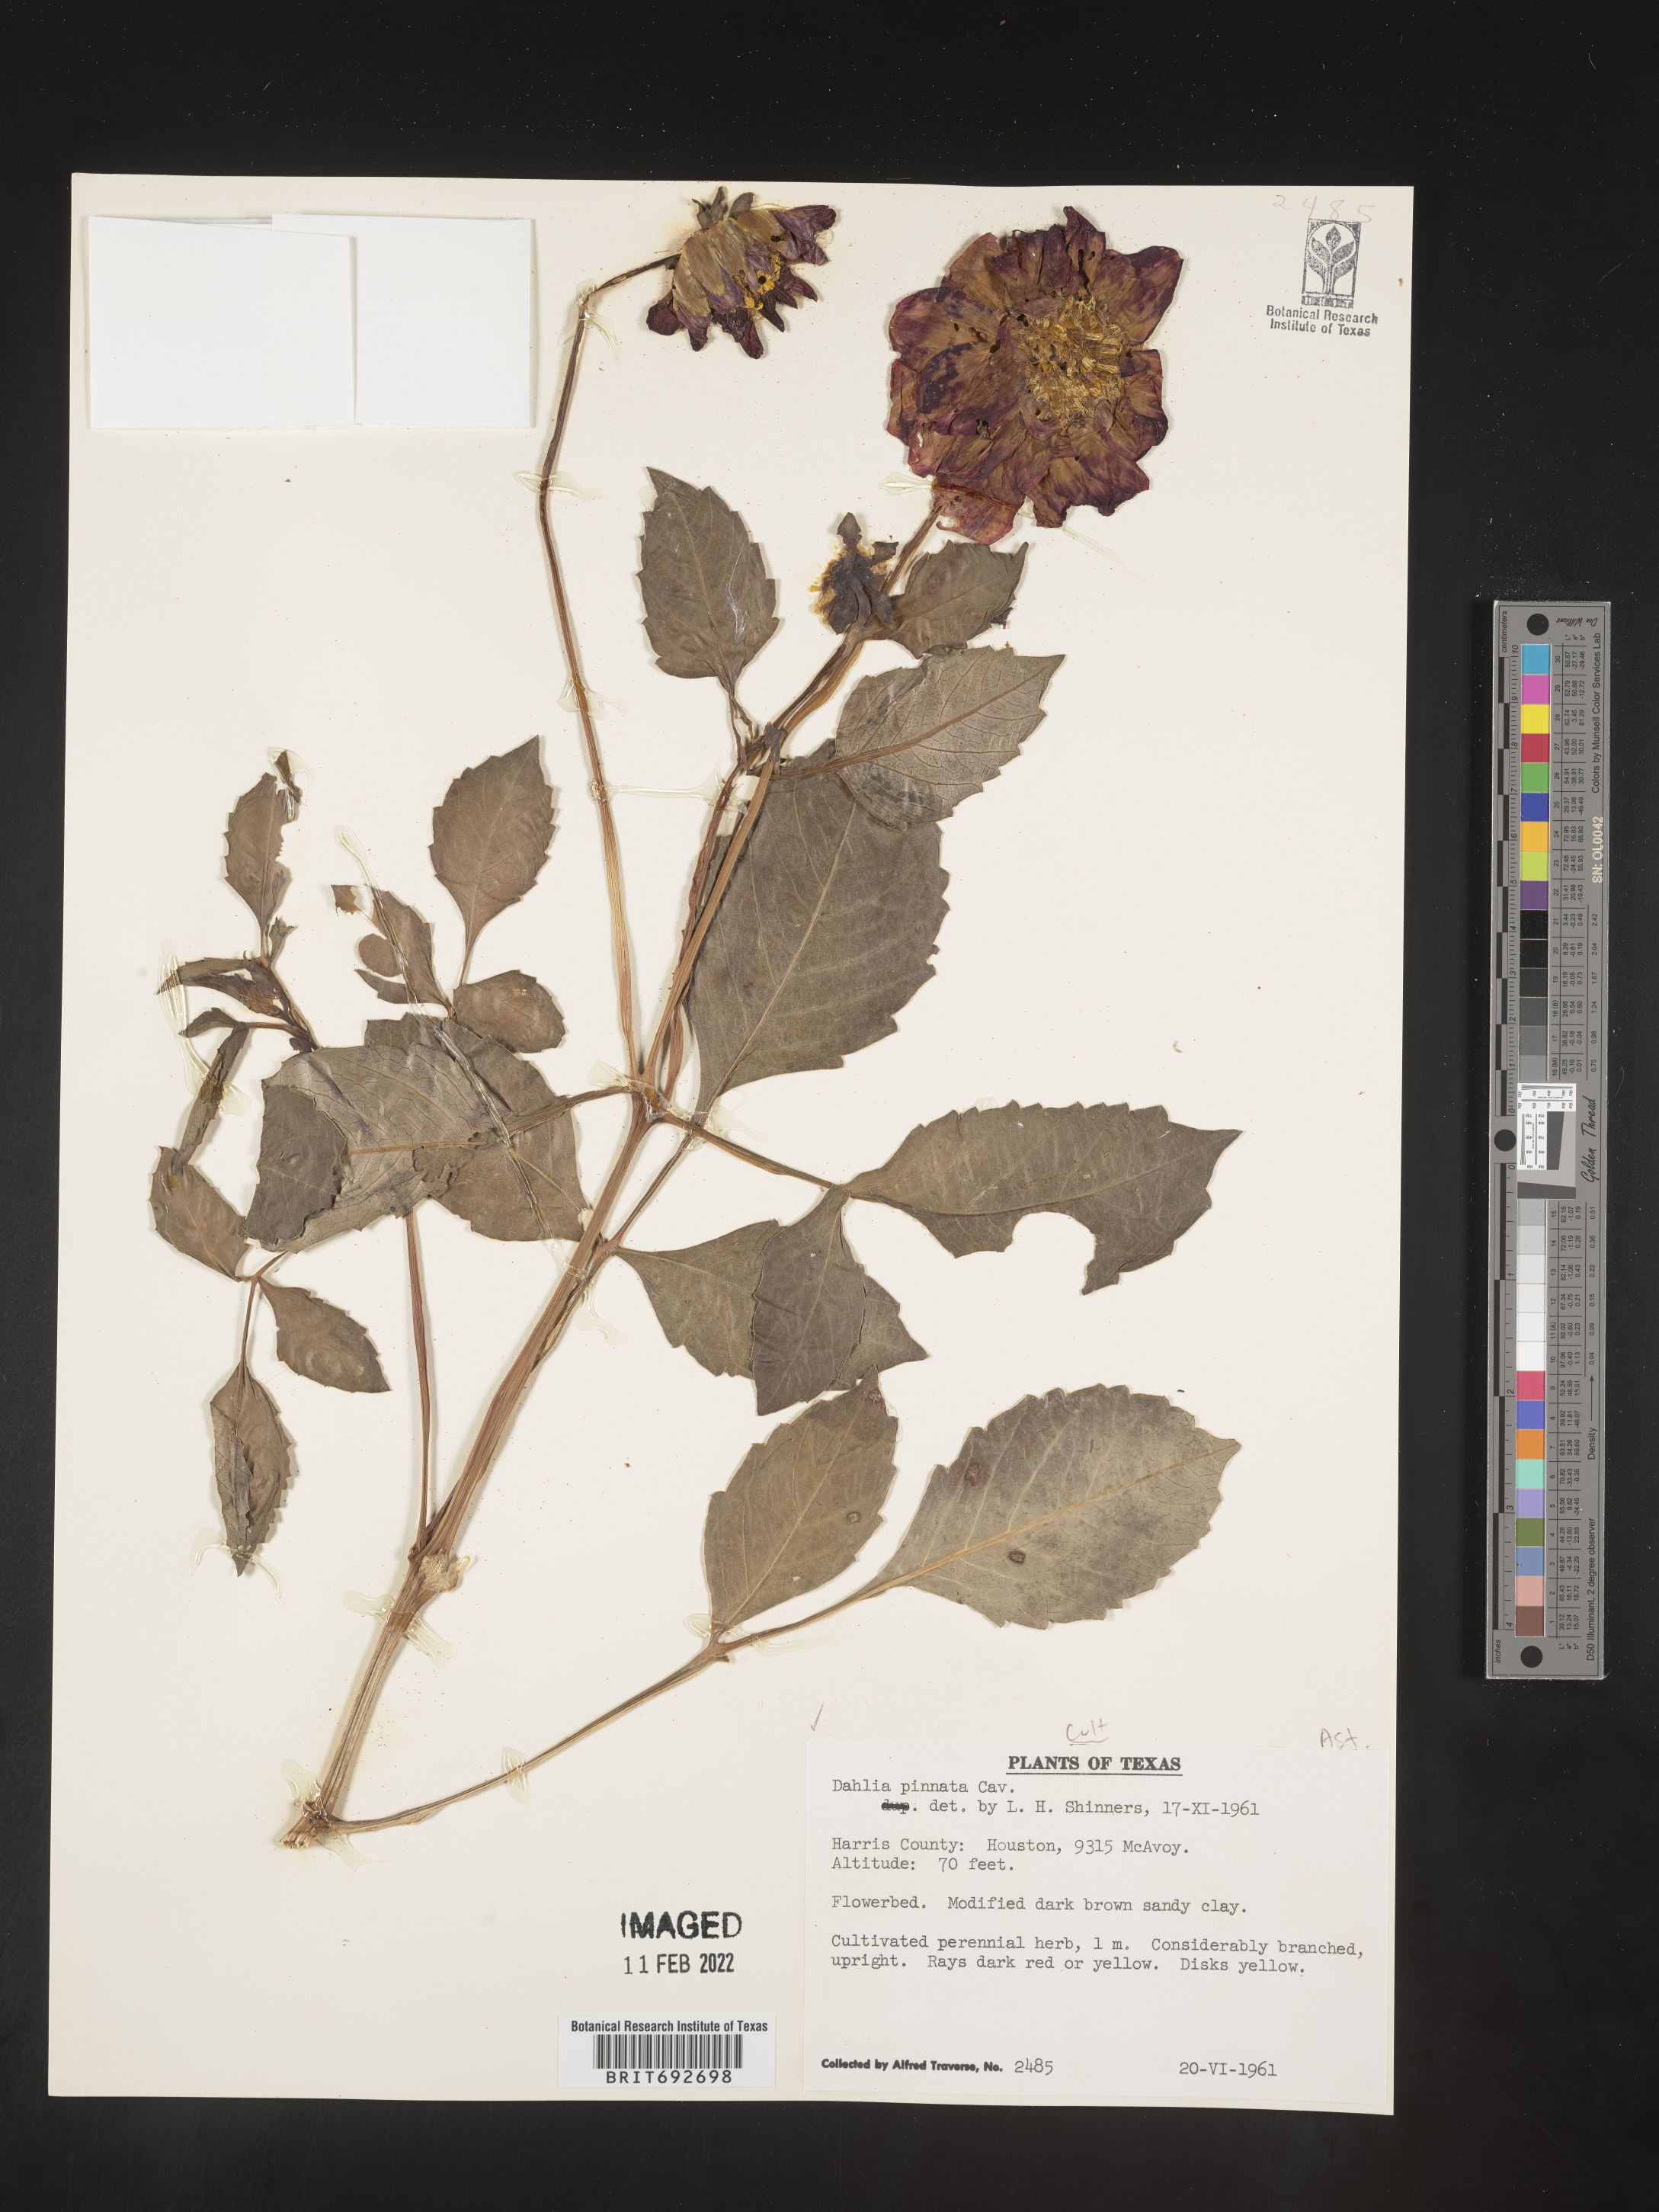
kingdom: Plantae
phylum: Tracheophyta
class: Magnoliopsida
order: Asterales
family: Asteraceae
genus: Dahlia
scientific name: Dahlia
